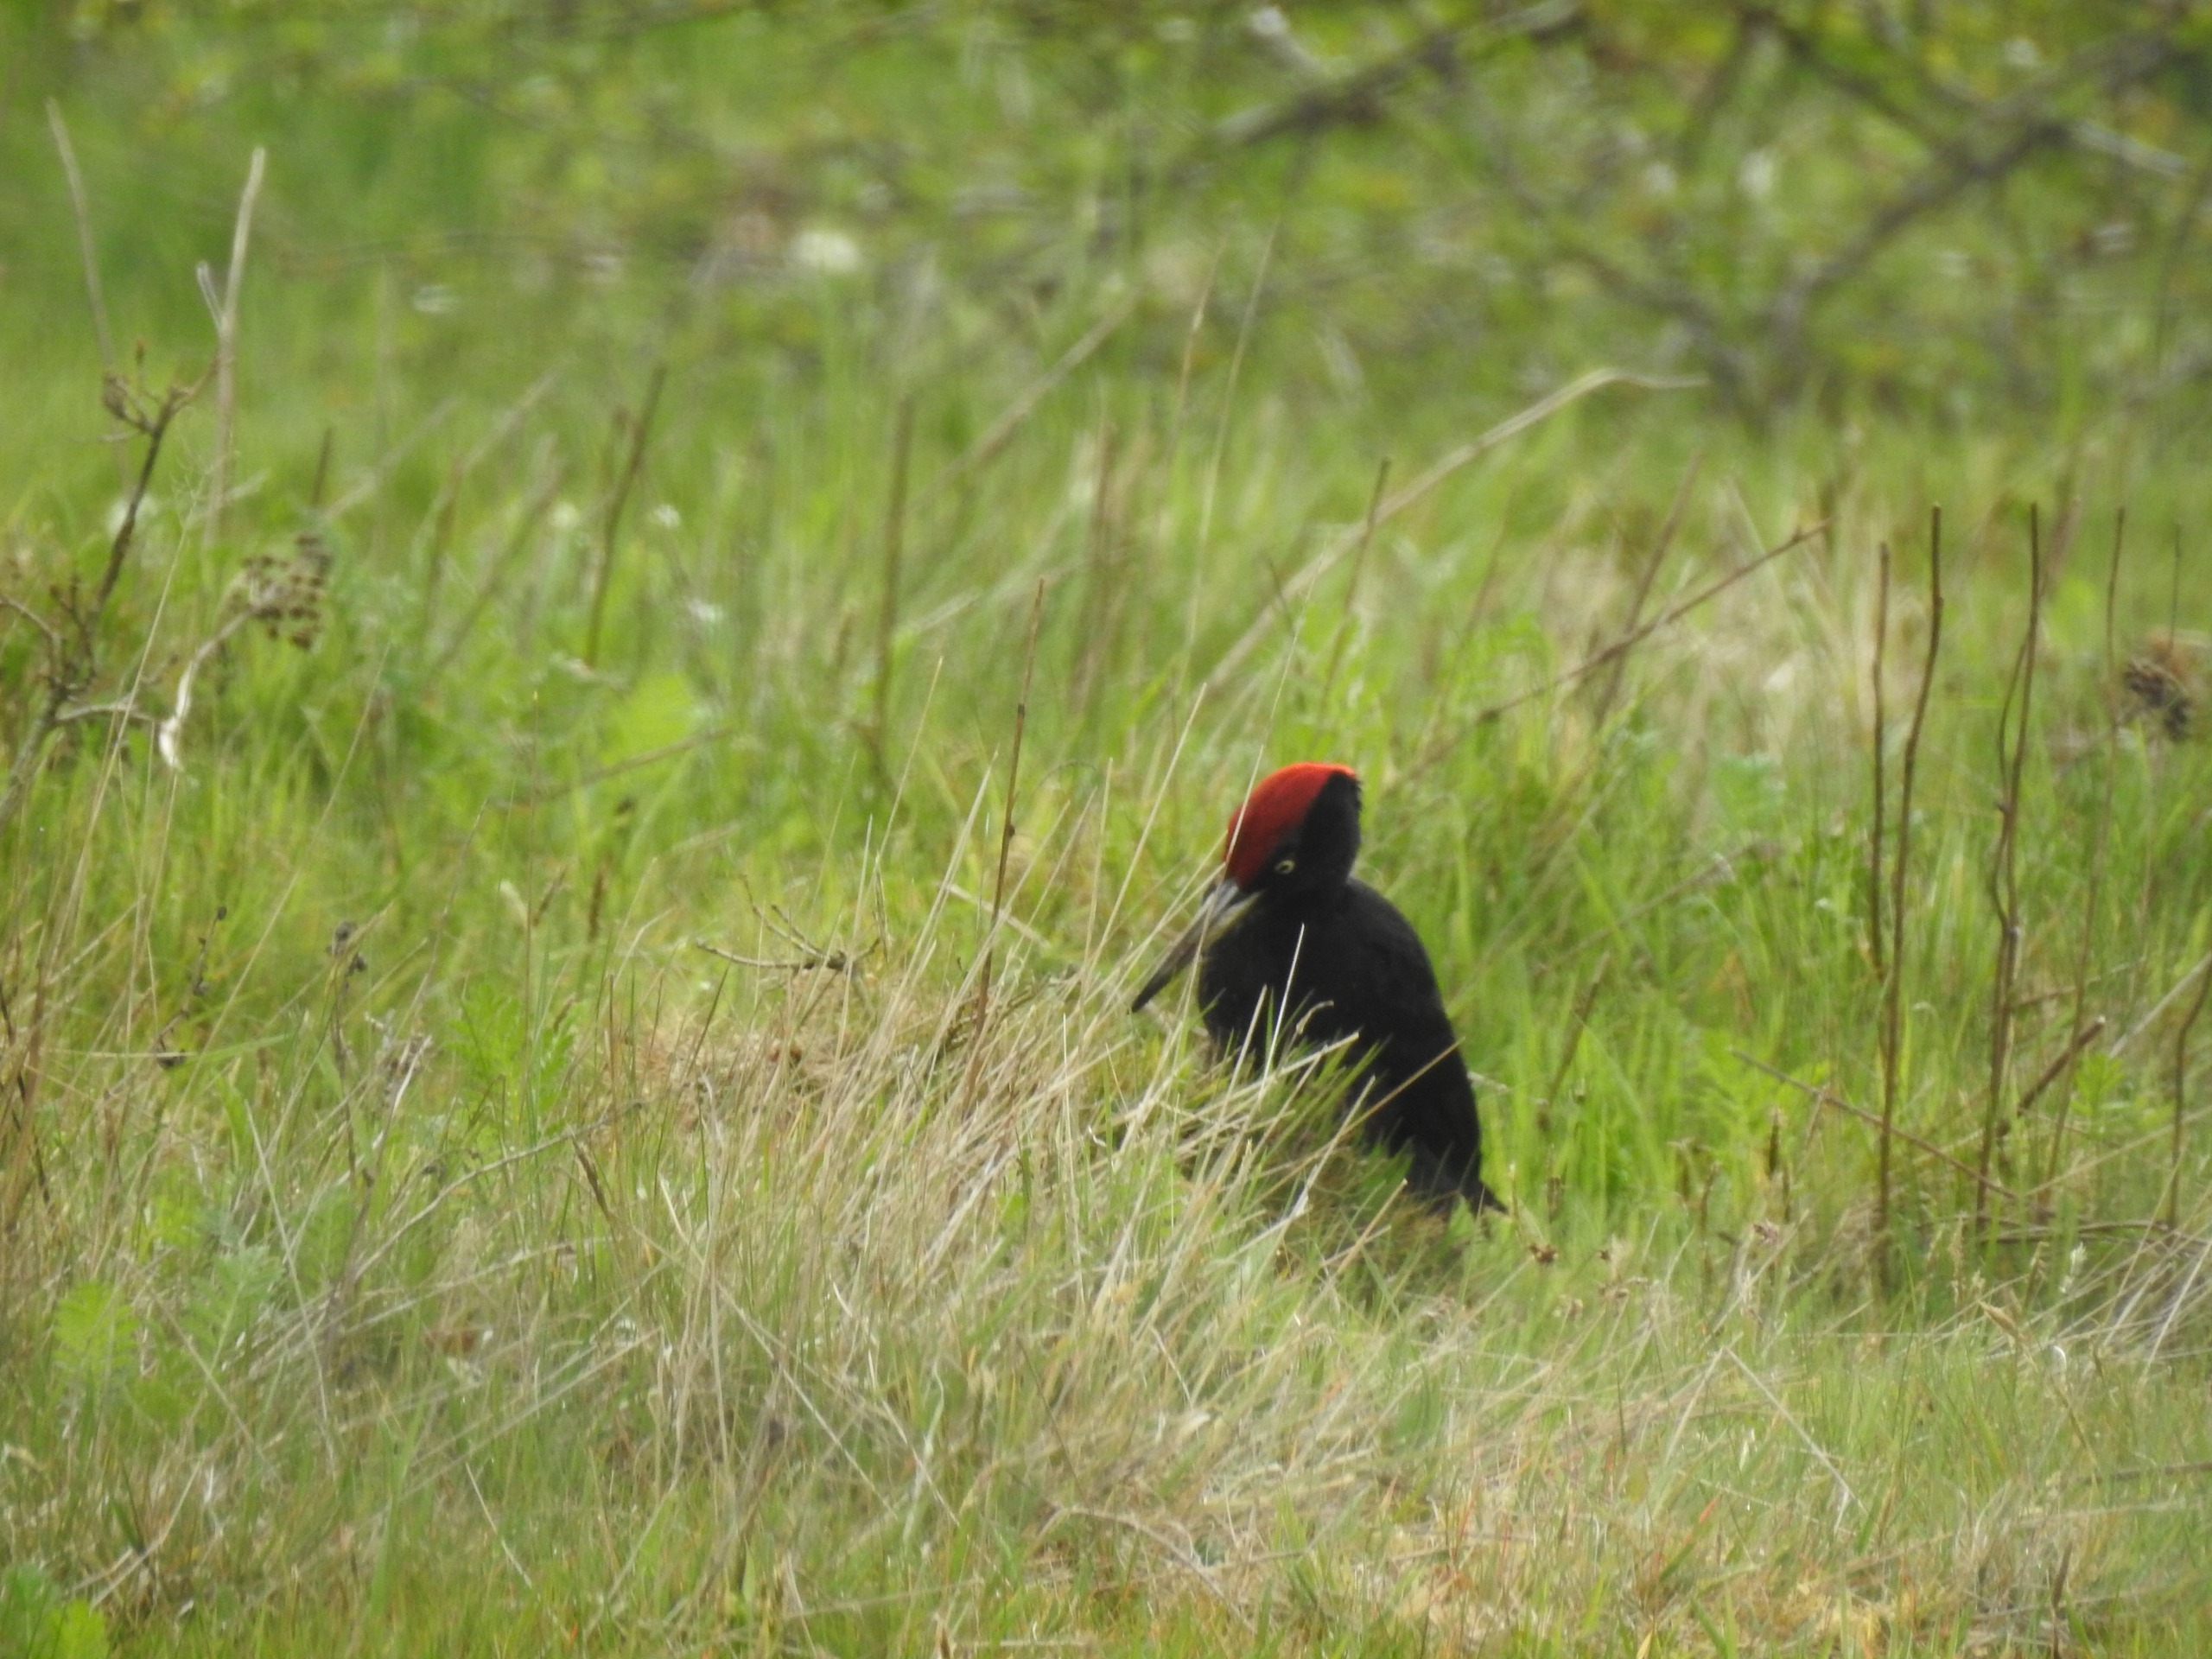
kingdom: Animalia
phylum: Chordata
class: Aves
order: Piciformes
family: Picidae
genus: Dryocopus
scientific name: Dryocopus martius
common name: Sortspætte
